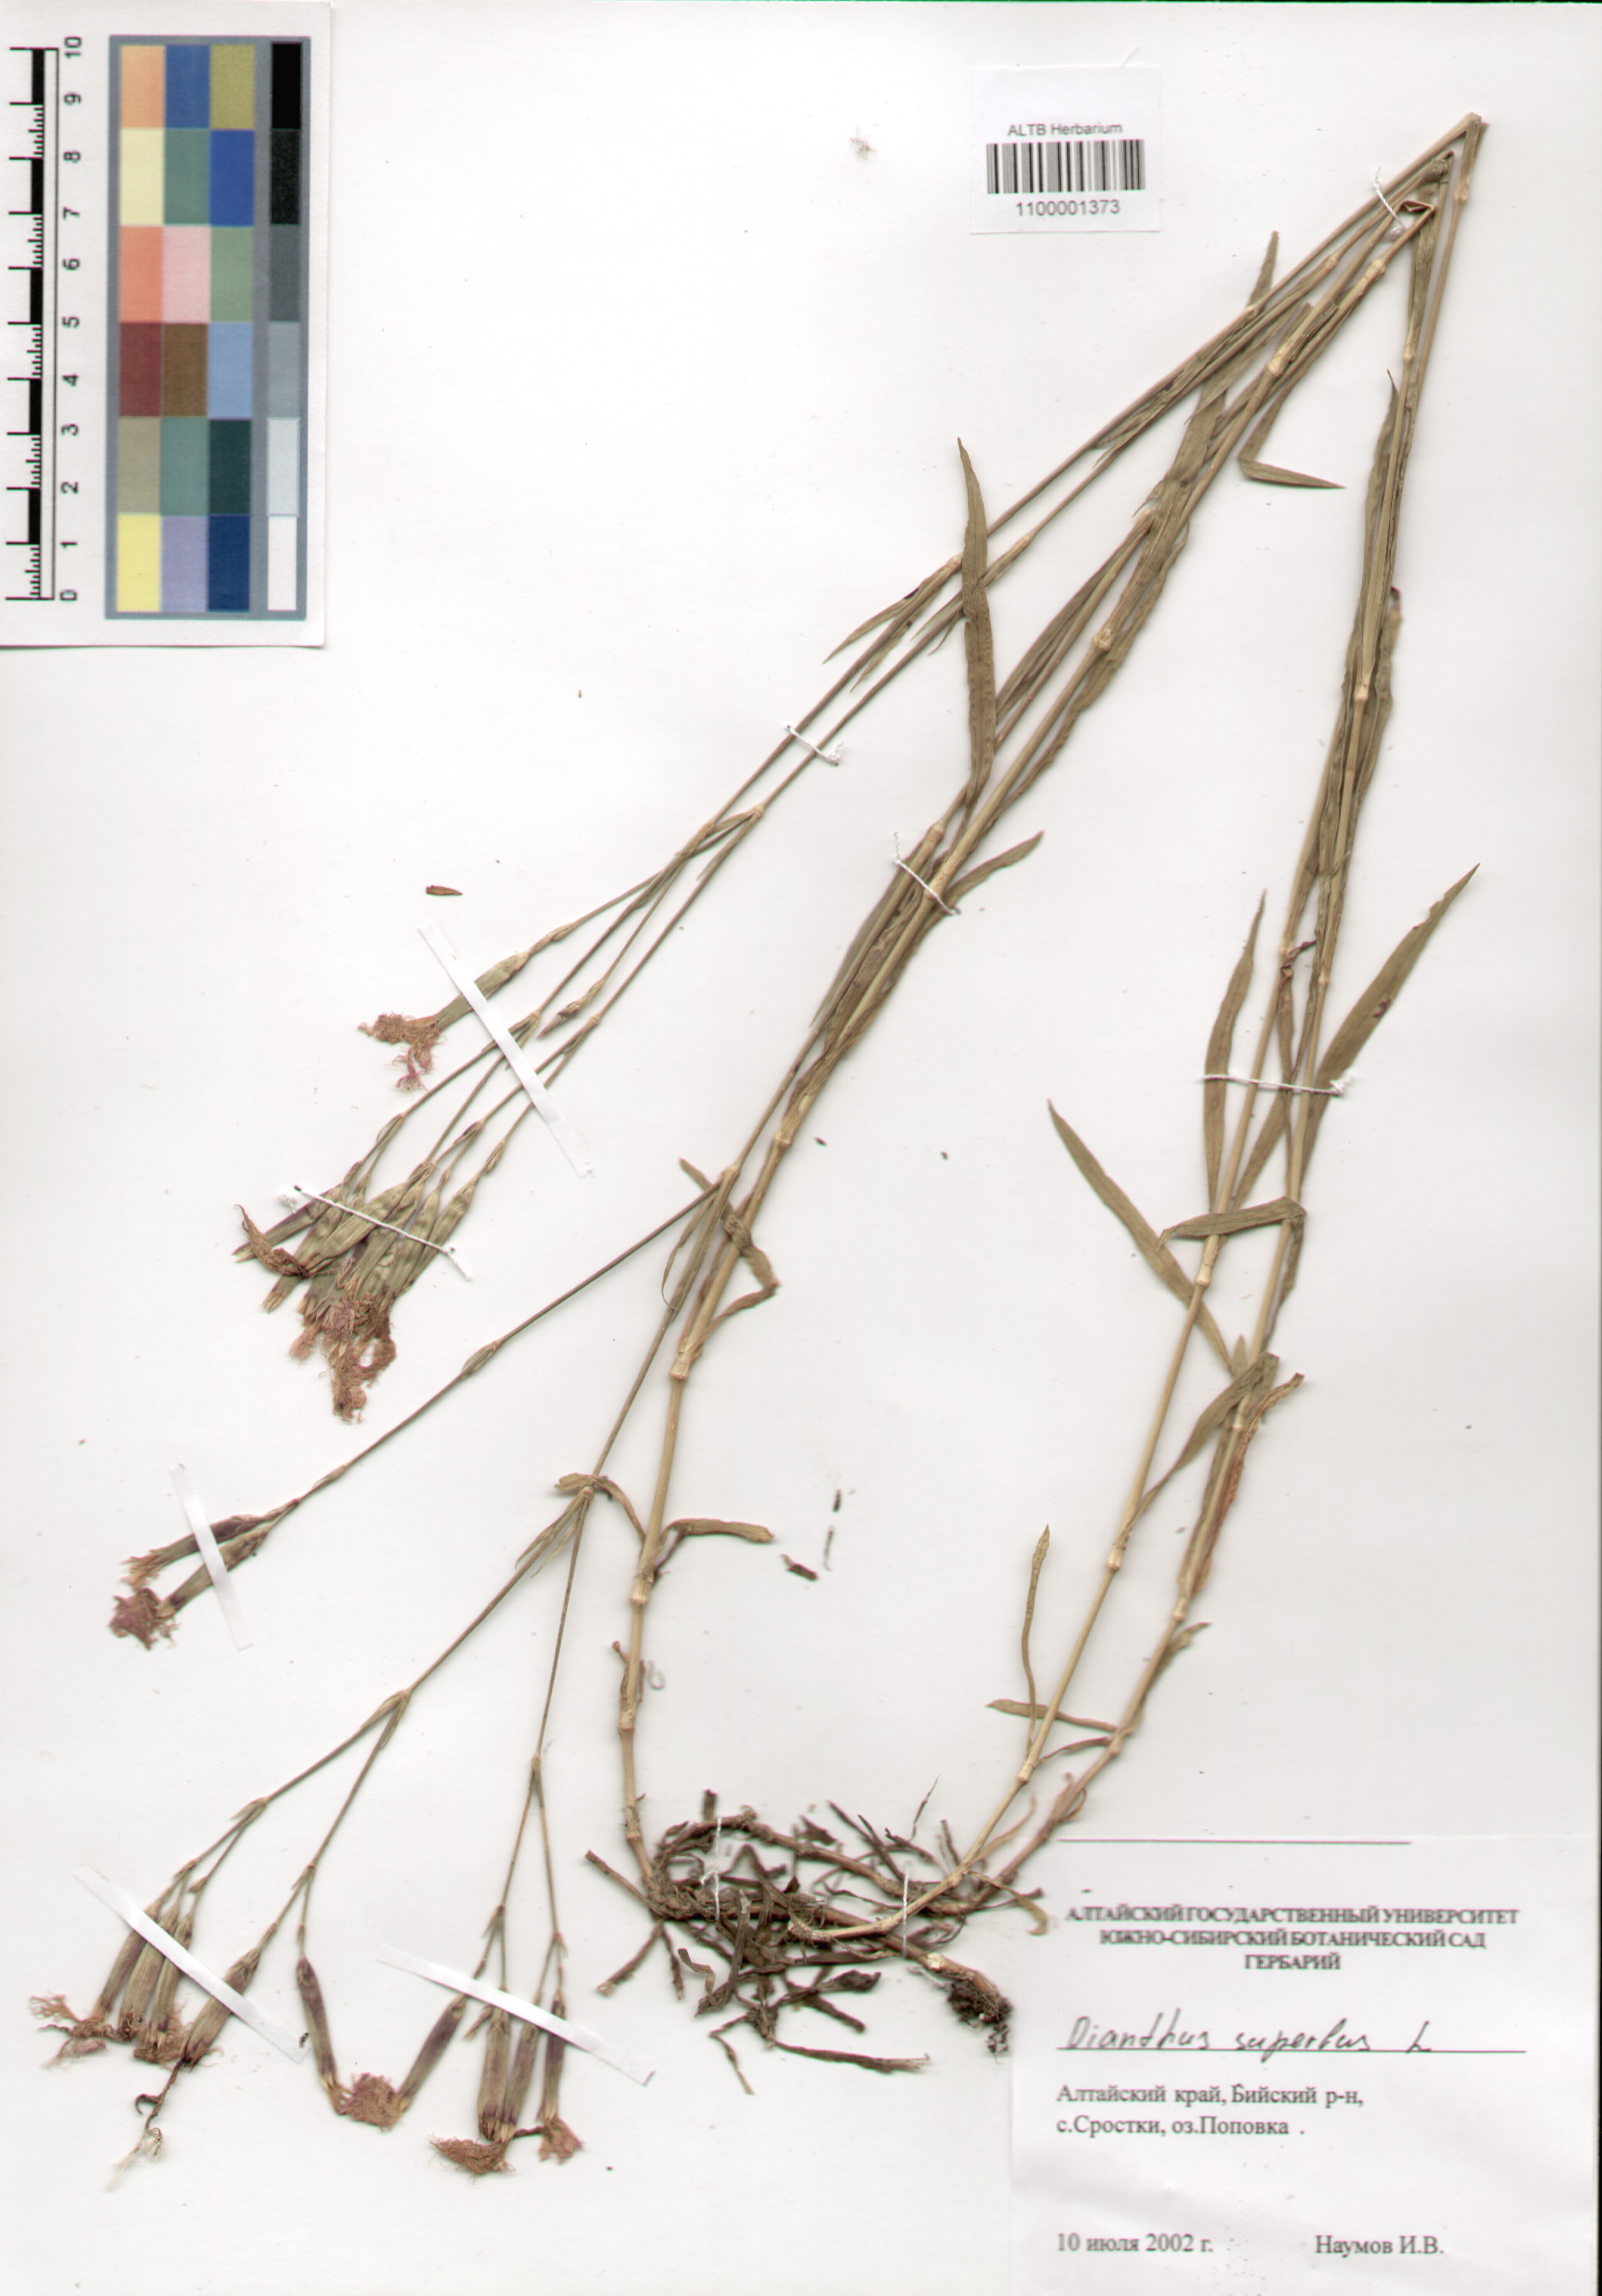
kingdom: Plantae
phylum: Tracheophyta
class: Magnoliopsida
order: Caryophyllales
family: Caryophyllaceae
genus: Dianthus
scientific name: Dianthus superbus
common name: Fringed pink
